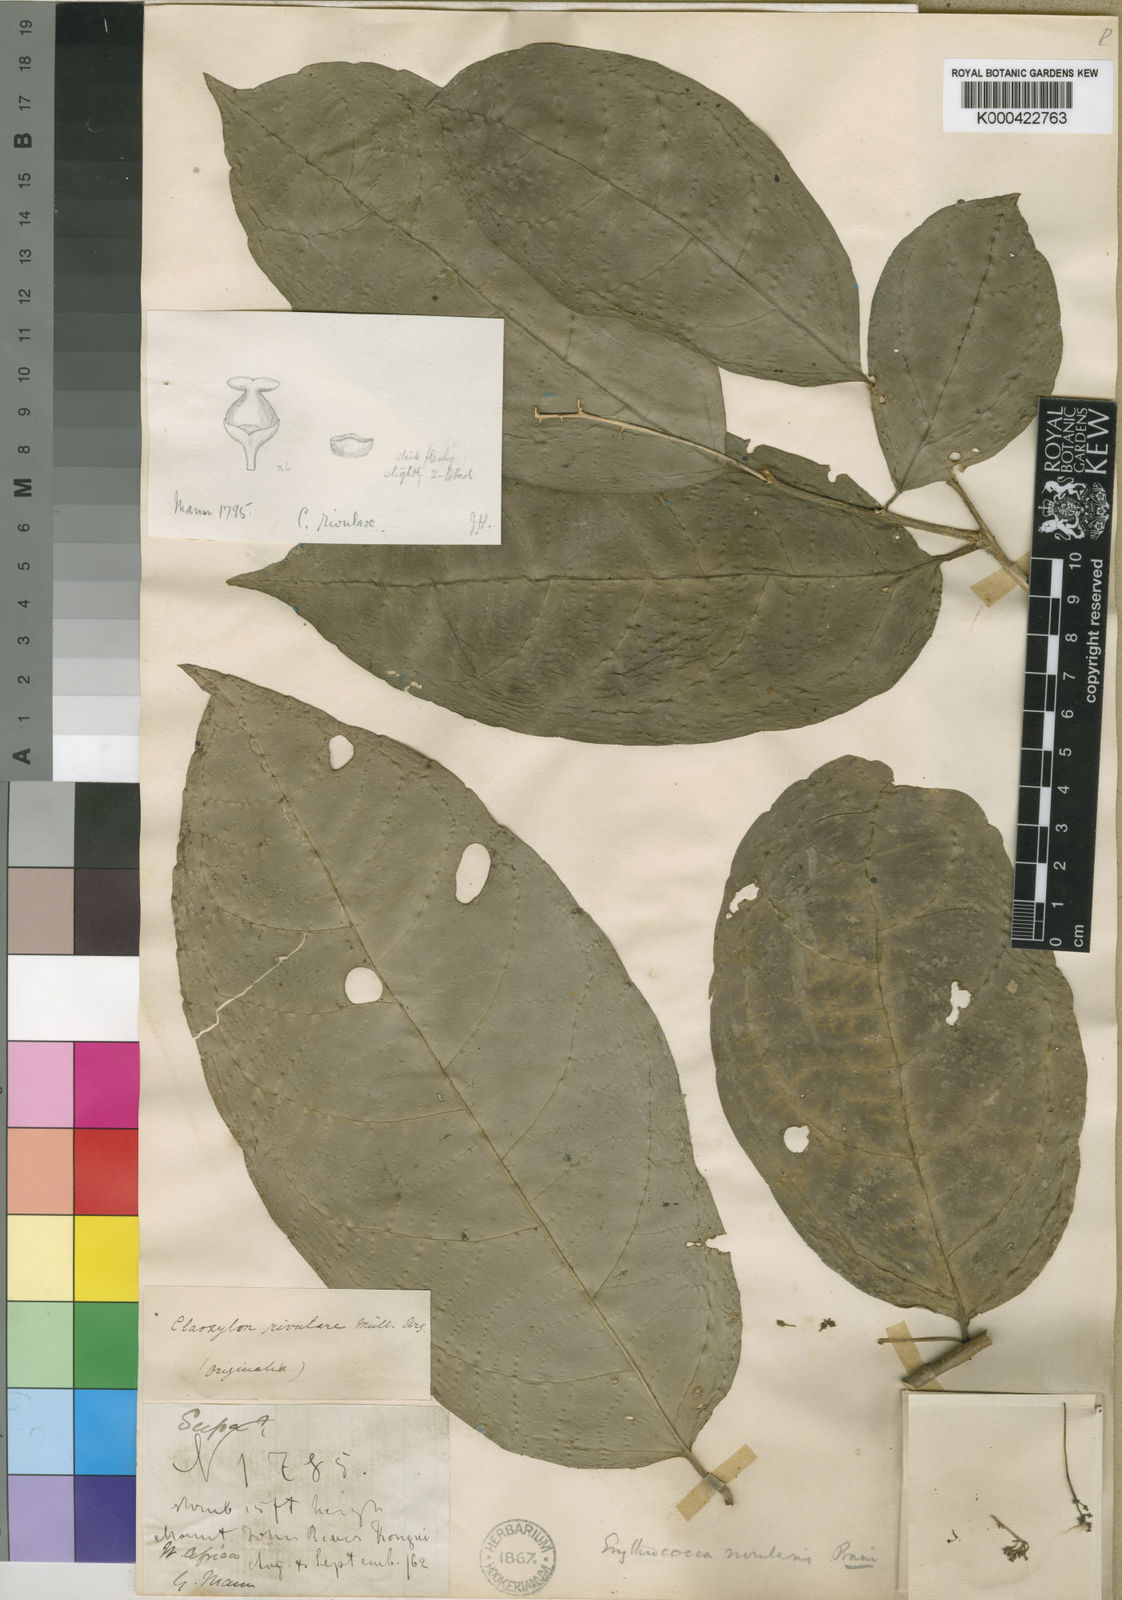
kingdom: Plantae
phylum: Tracheophyta
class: Magnoliopsida
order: Malpighiales
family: Euphorbiaceae
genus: Erythrococca
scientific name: Erythrococca
